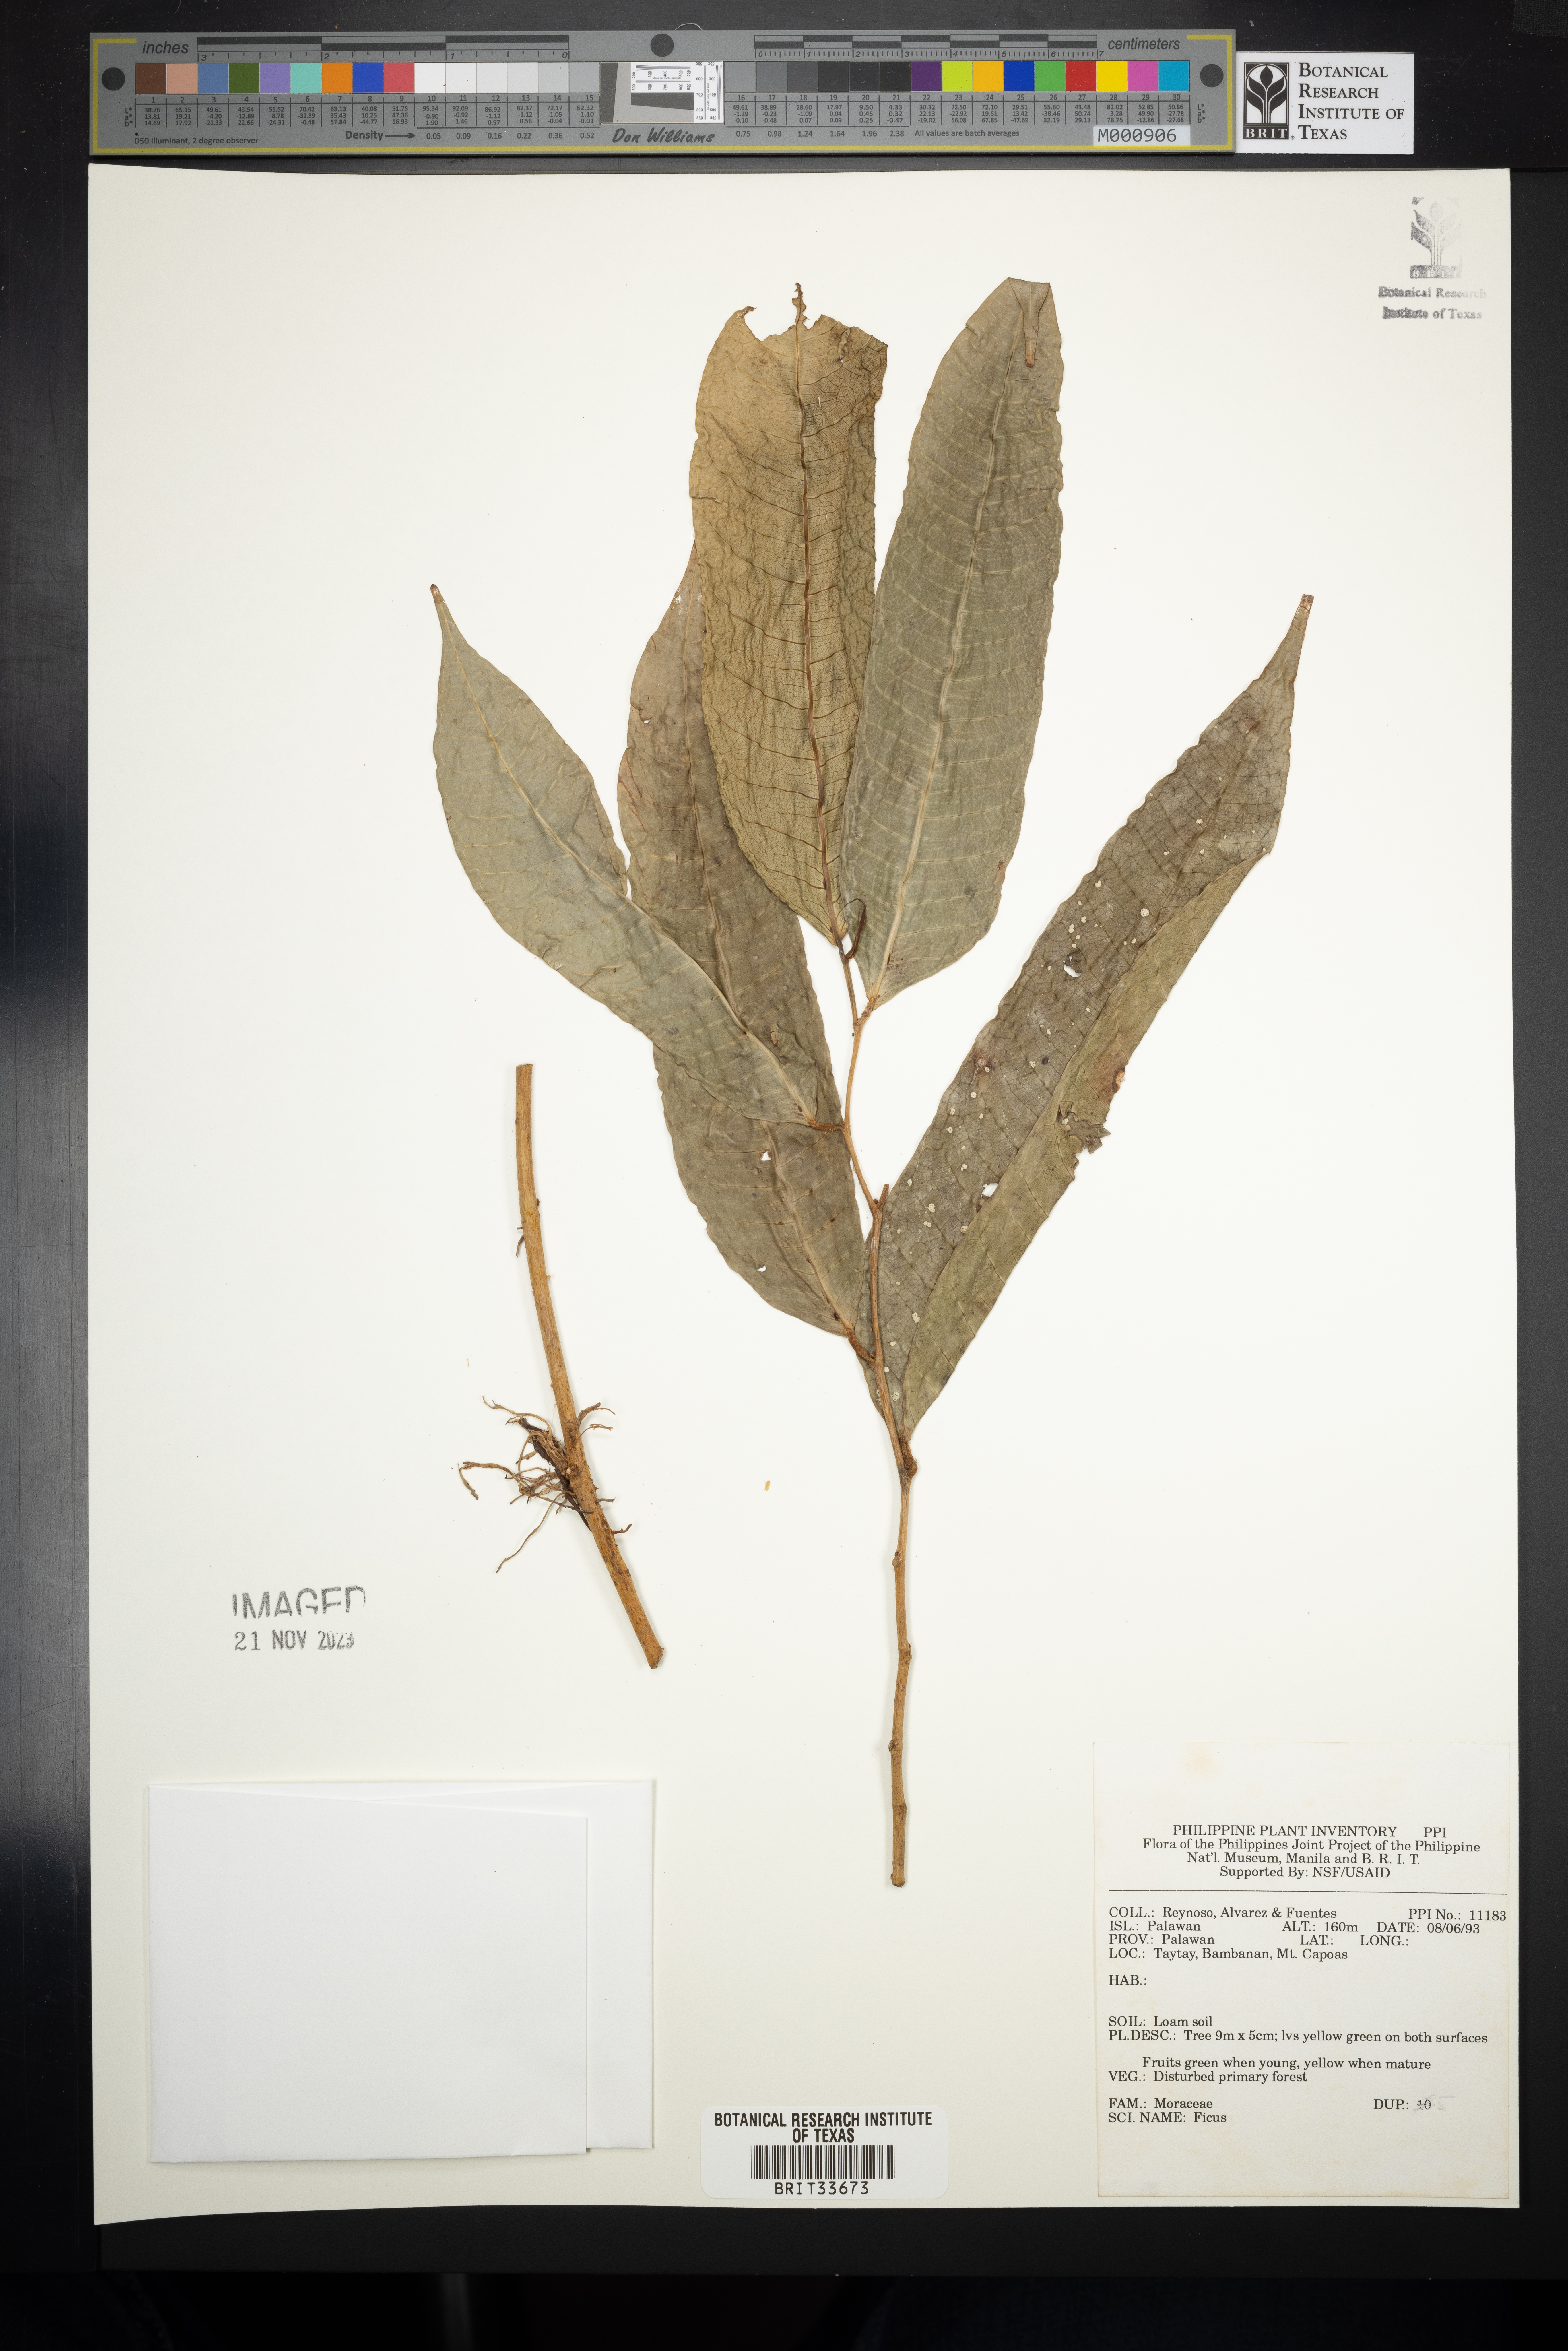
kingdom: Plantae
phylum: Tracheophyta
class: Magnoliopsida
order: Rosales
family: Moraceae
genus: Ficus
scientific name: Ficus
